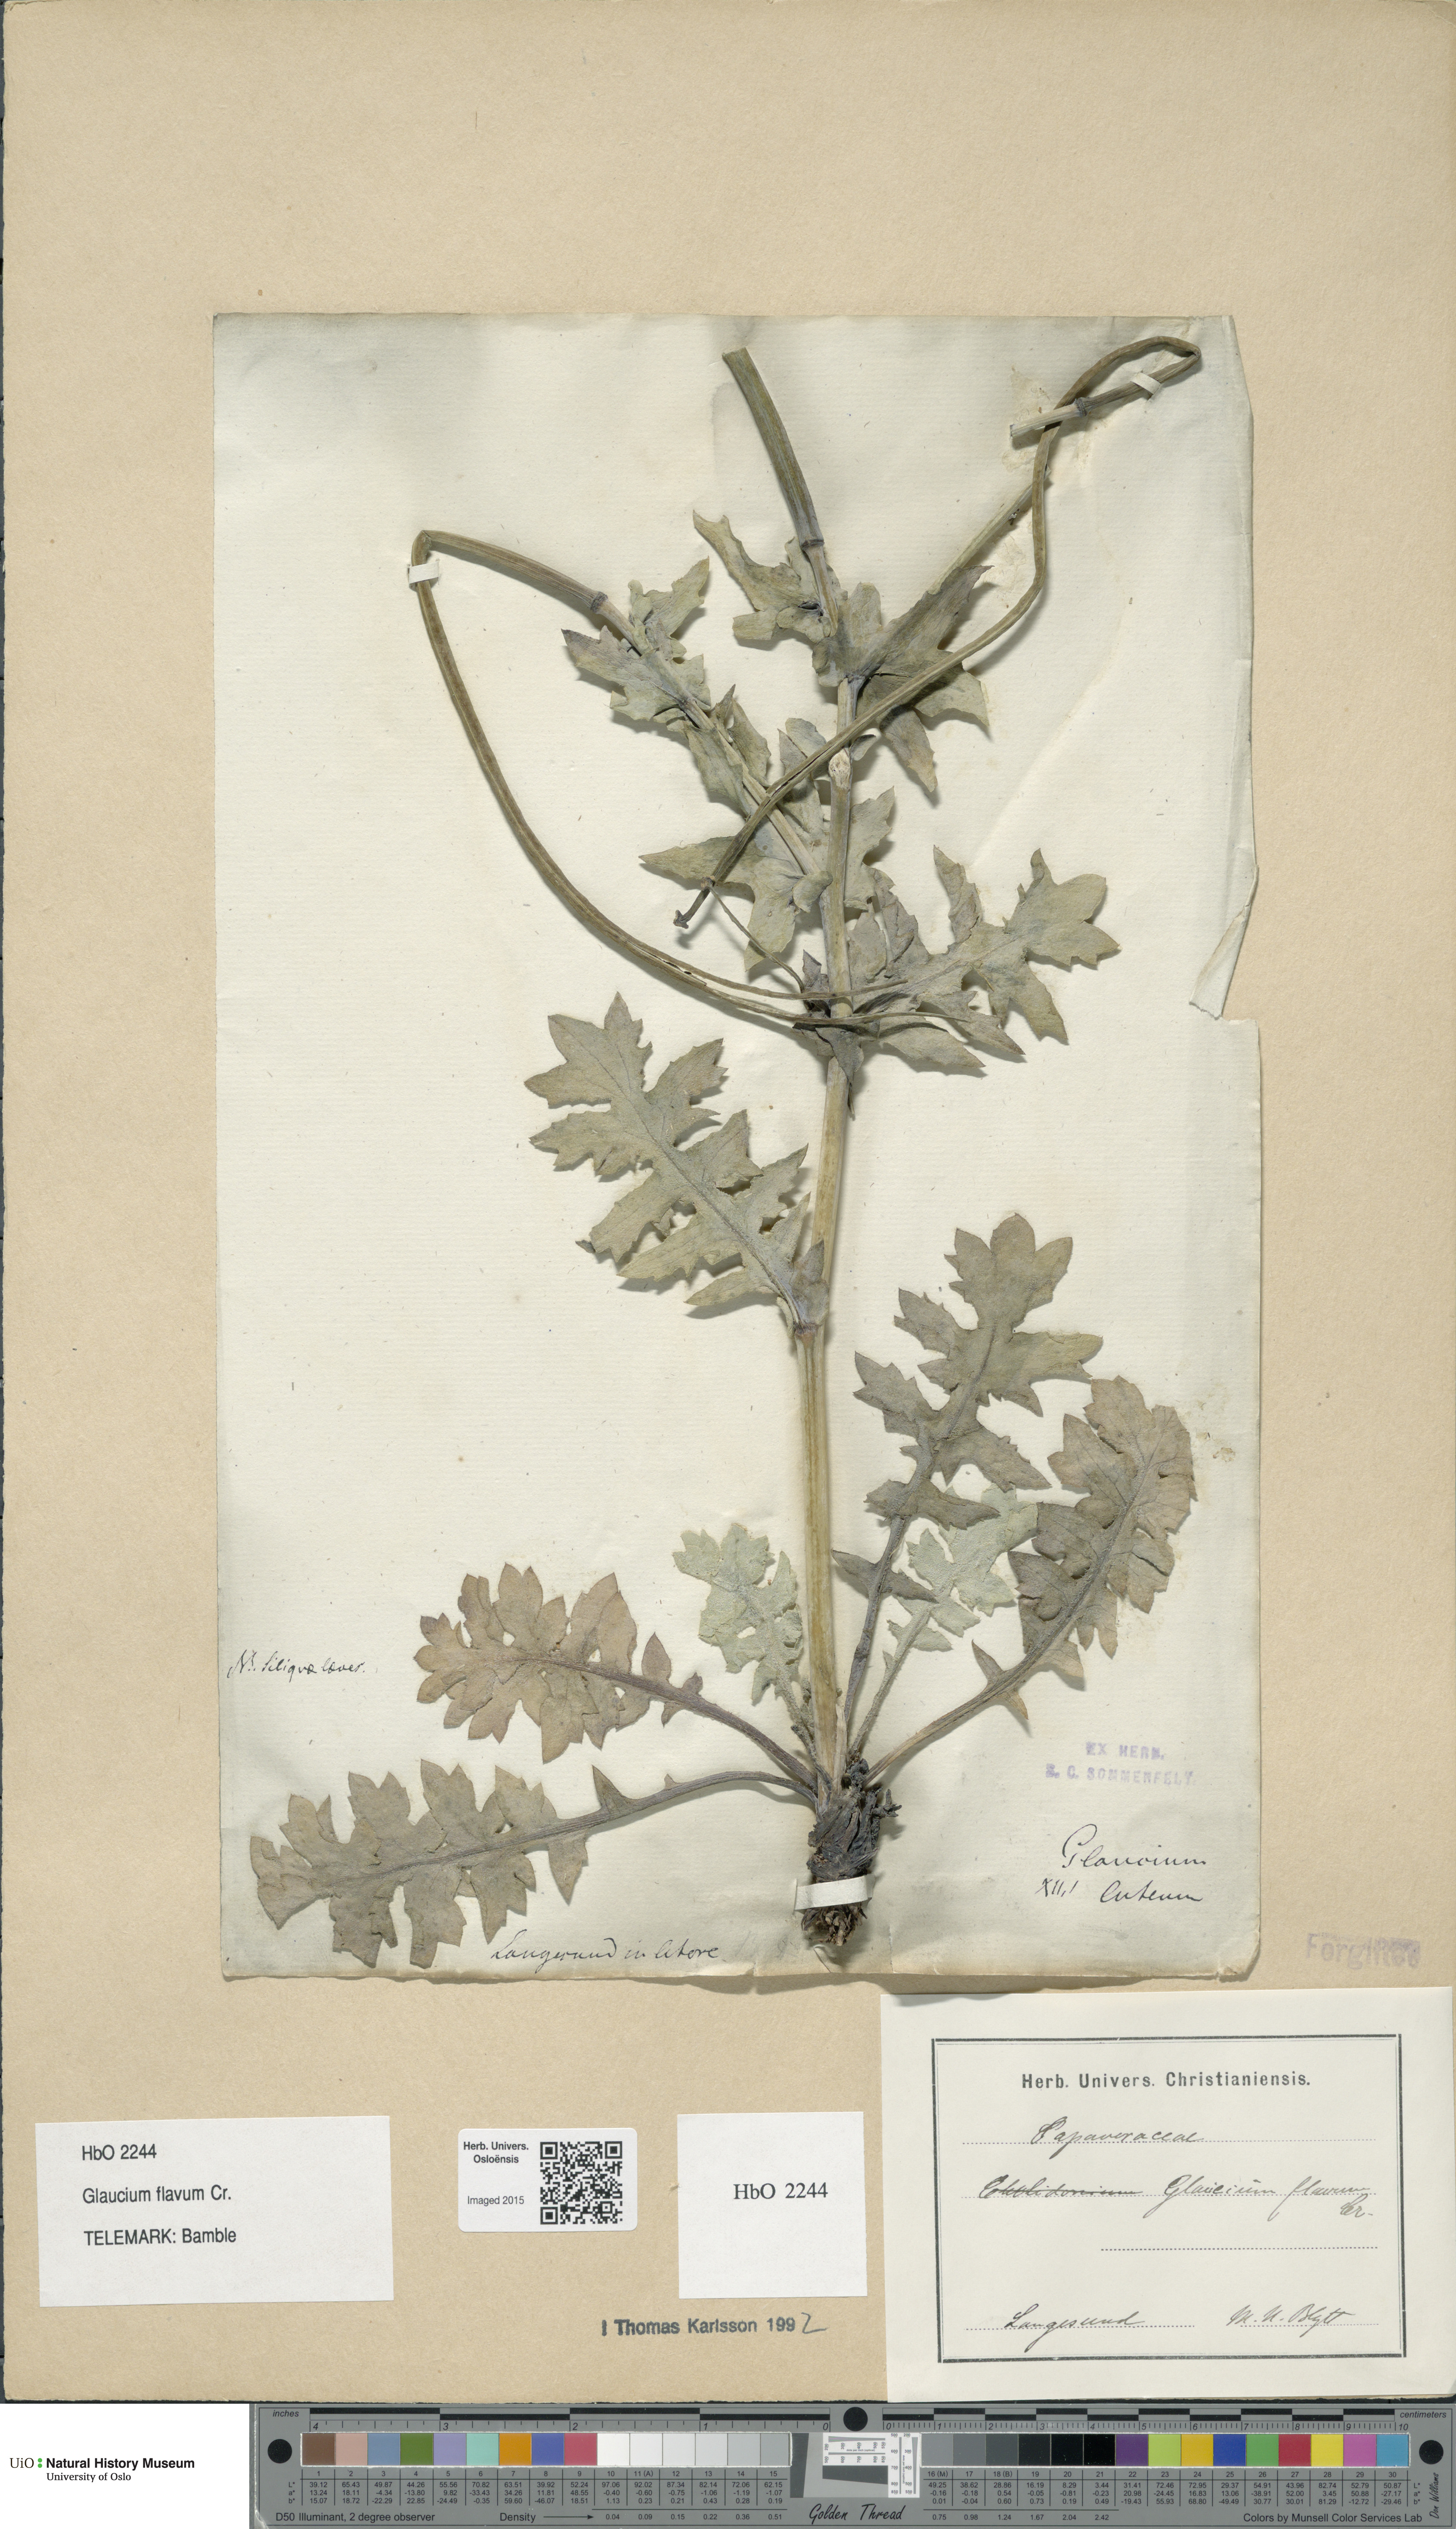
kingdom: Plantae
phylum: Tracheophyta
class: Magnoliopsida
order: Ranunculales
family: Papaveraceae
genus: Glaucium
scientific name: Glaucium flavum
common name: Yellow horned-poppy
